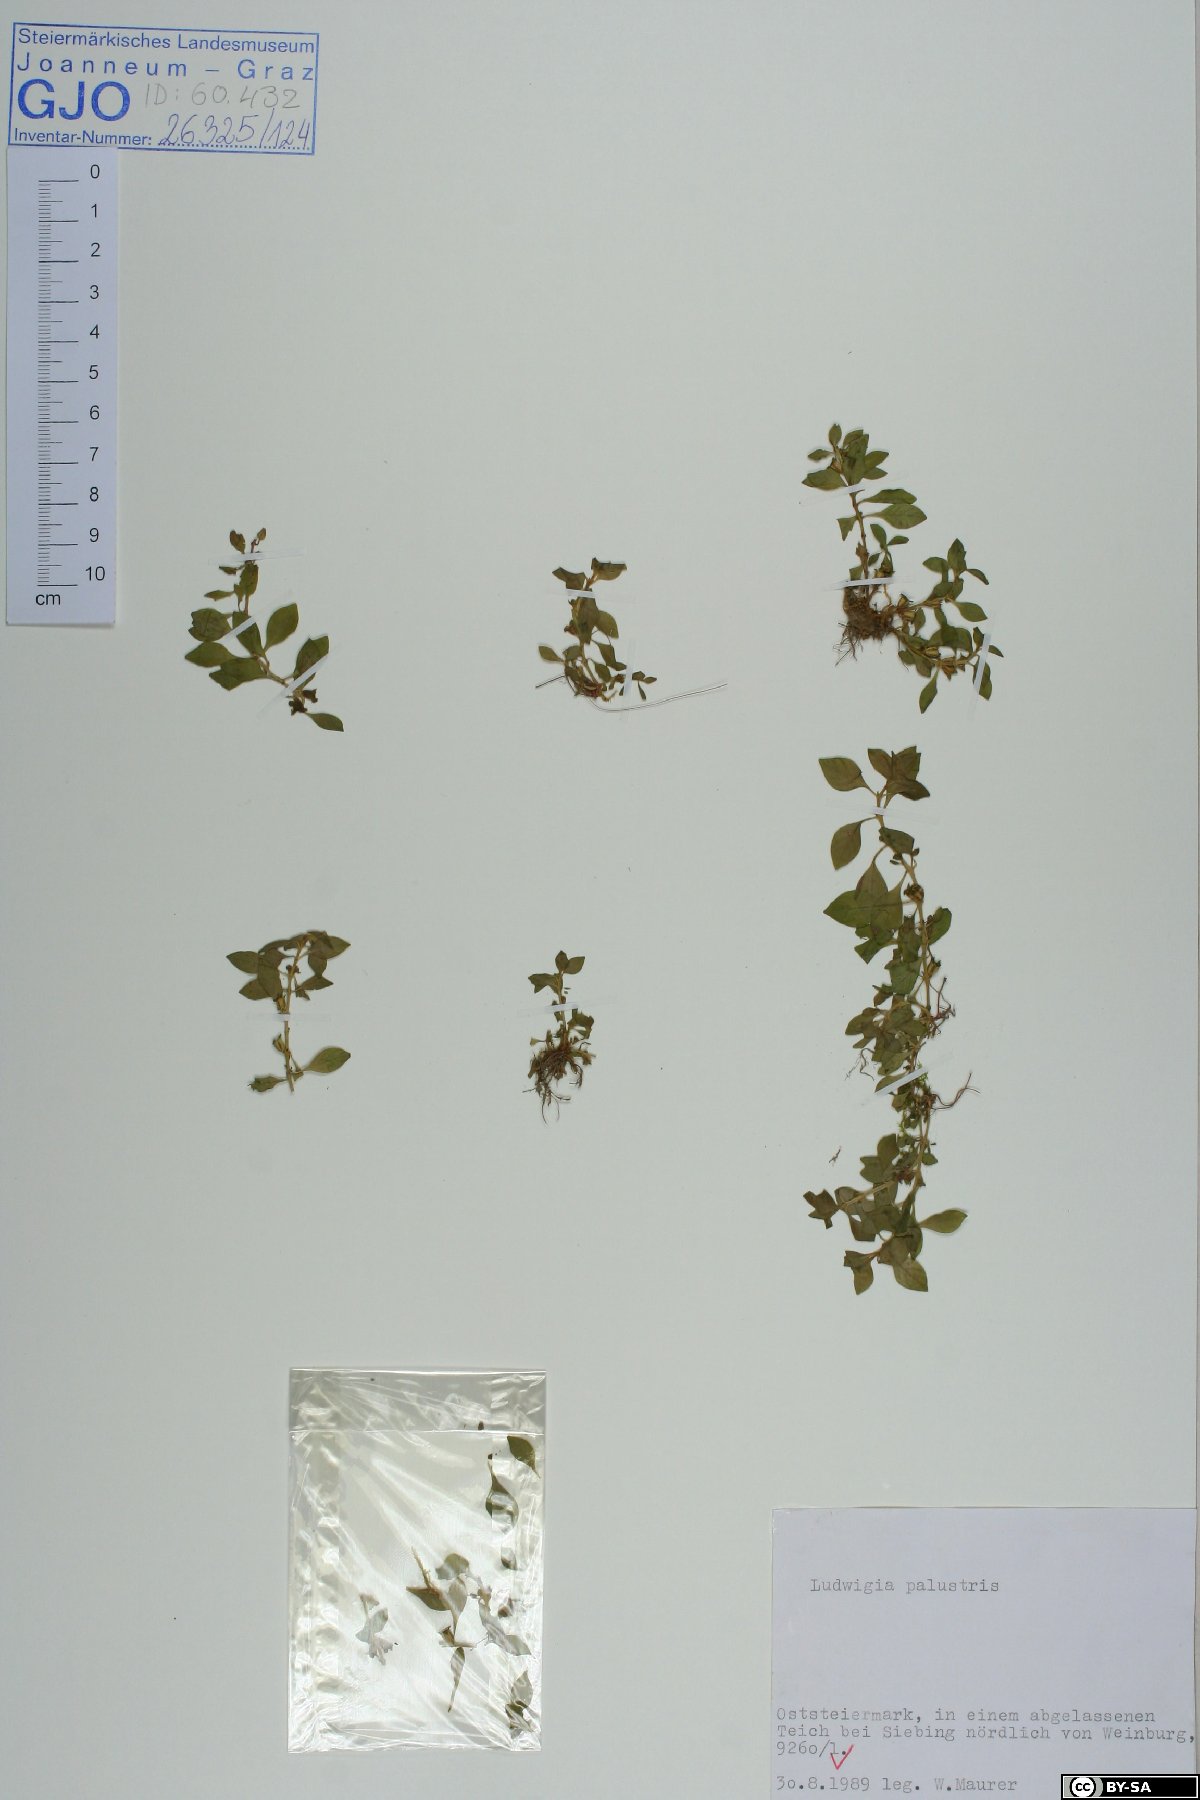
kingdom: Plantae
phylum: Tracheophyta
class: Magnoliopsida
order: Myrtales
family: Onagraceae
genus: Ludwigia
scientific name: Ludwigia palustris
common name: Hampshire-purslane
